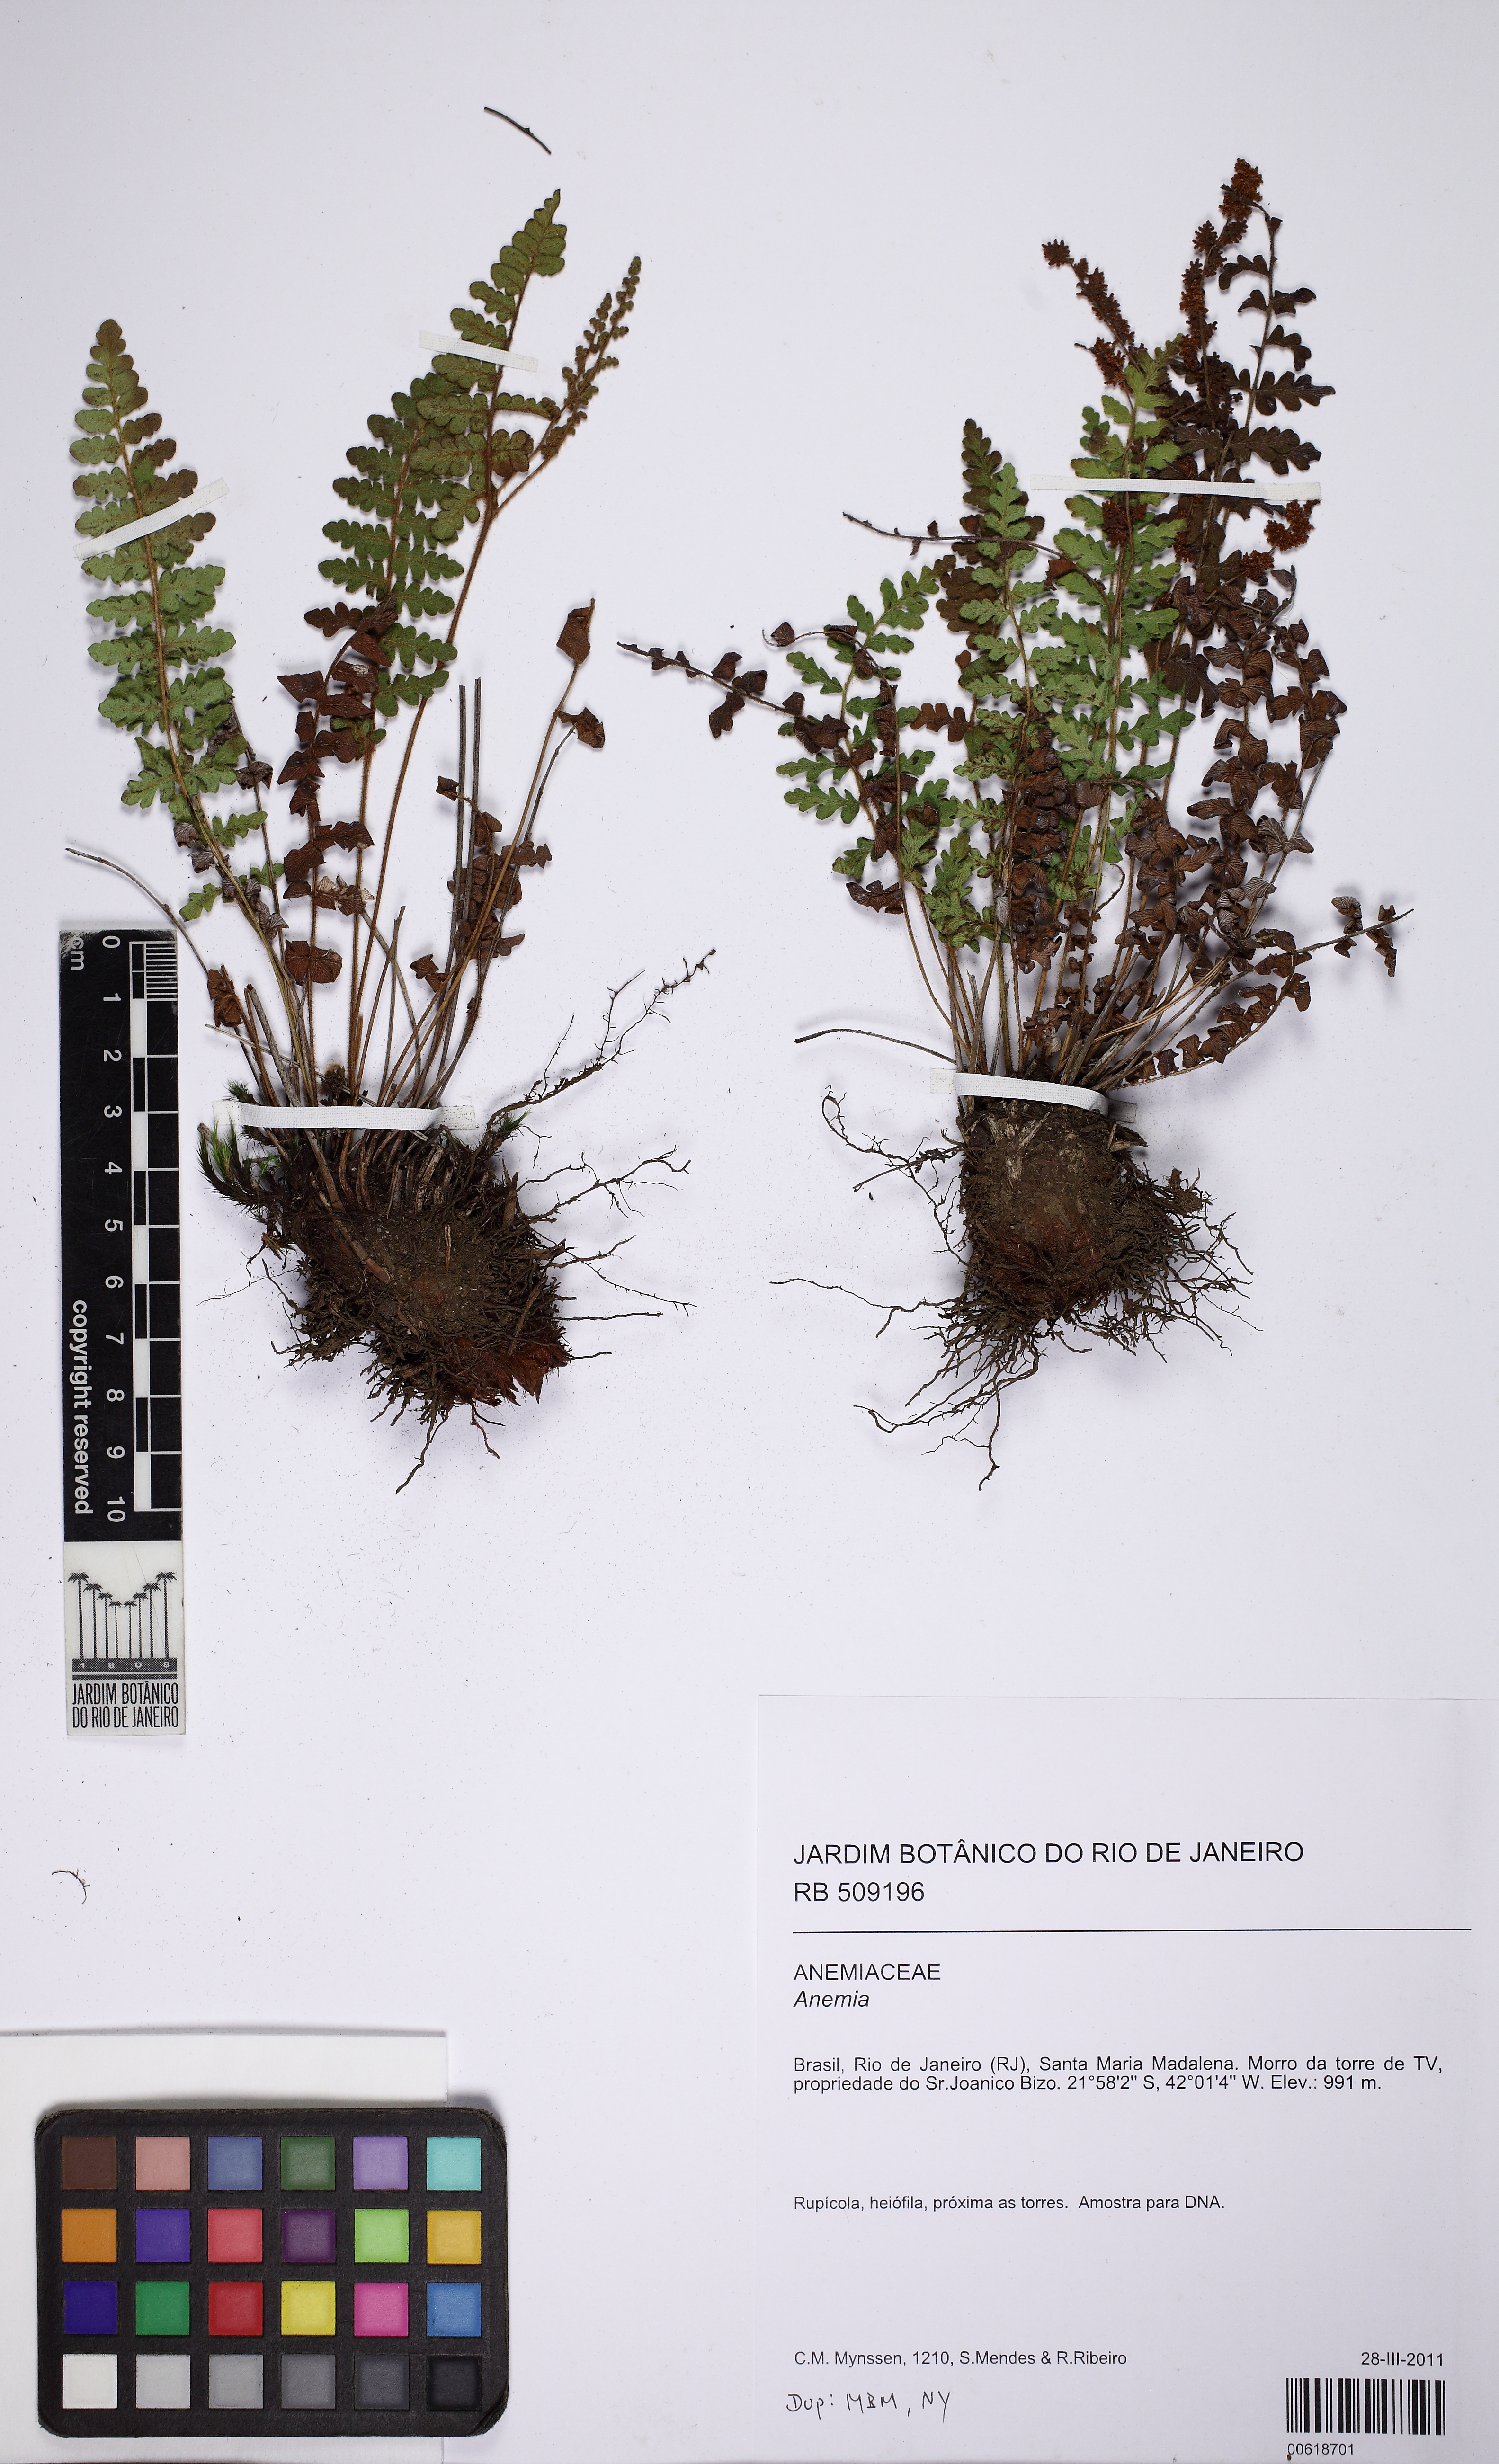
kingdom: Plantae
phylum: Tracheophyta
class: Polypodiopsida
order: Schizaeales
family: Anemiaceae
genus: Anemia
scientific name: Anemia villosa
